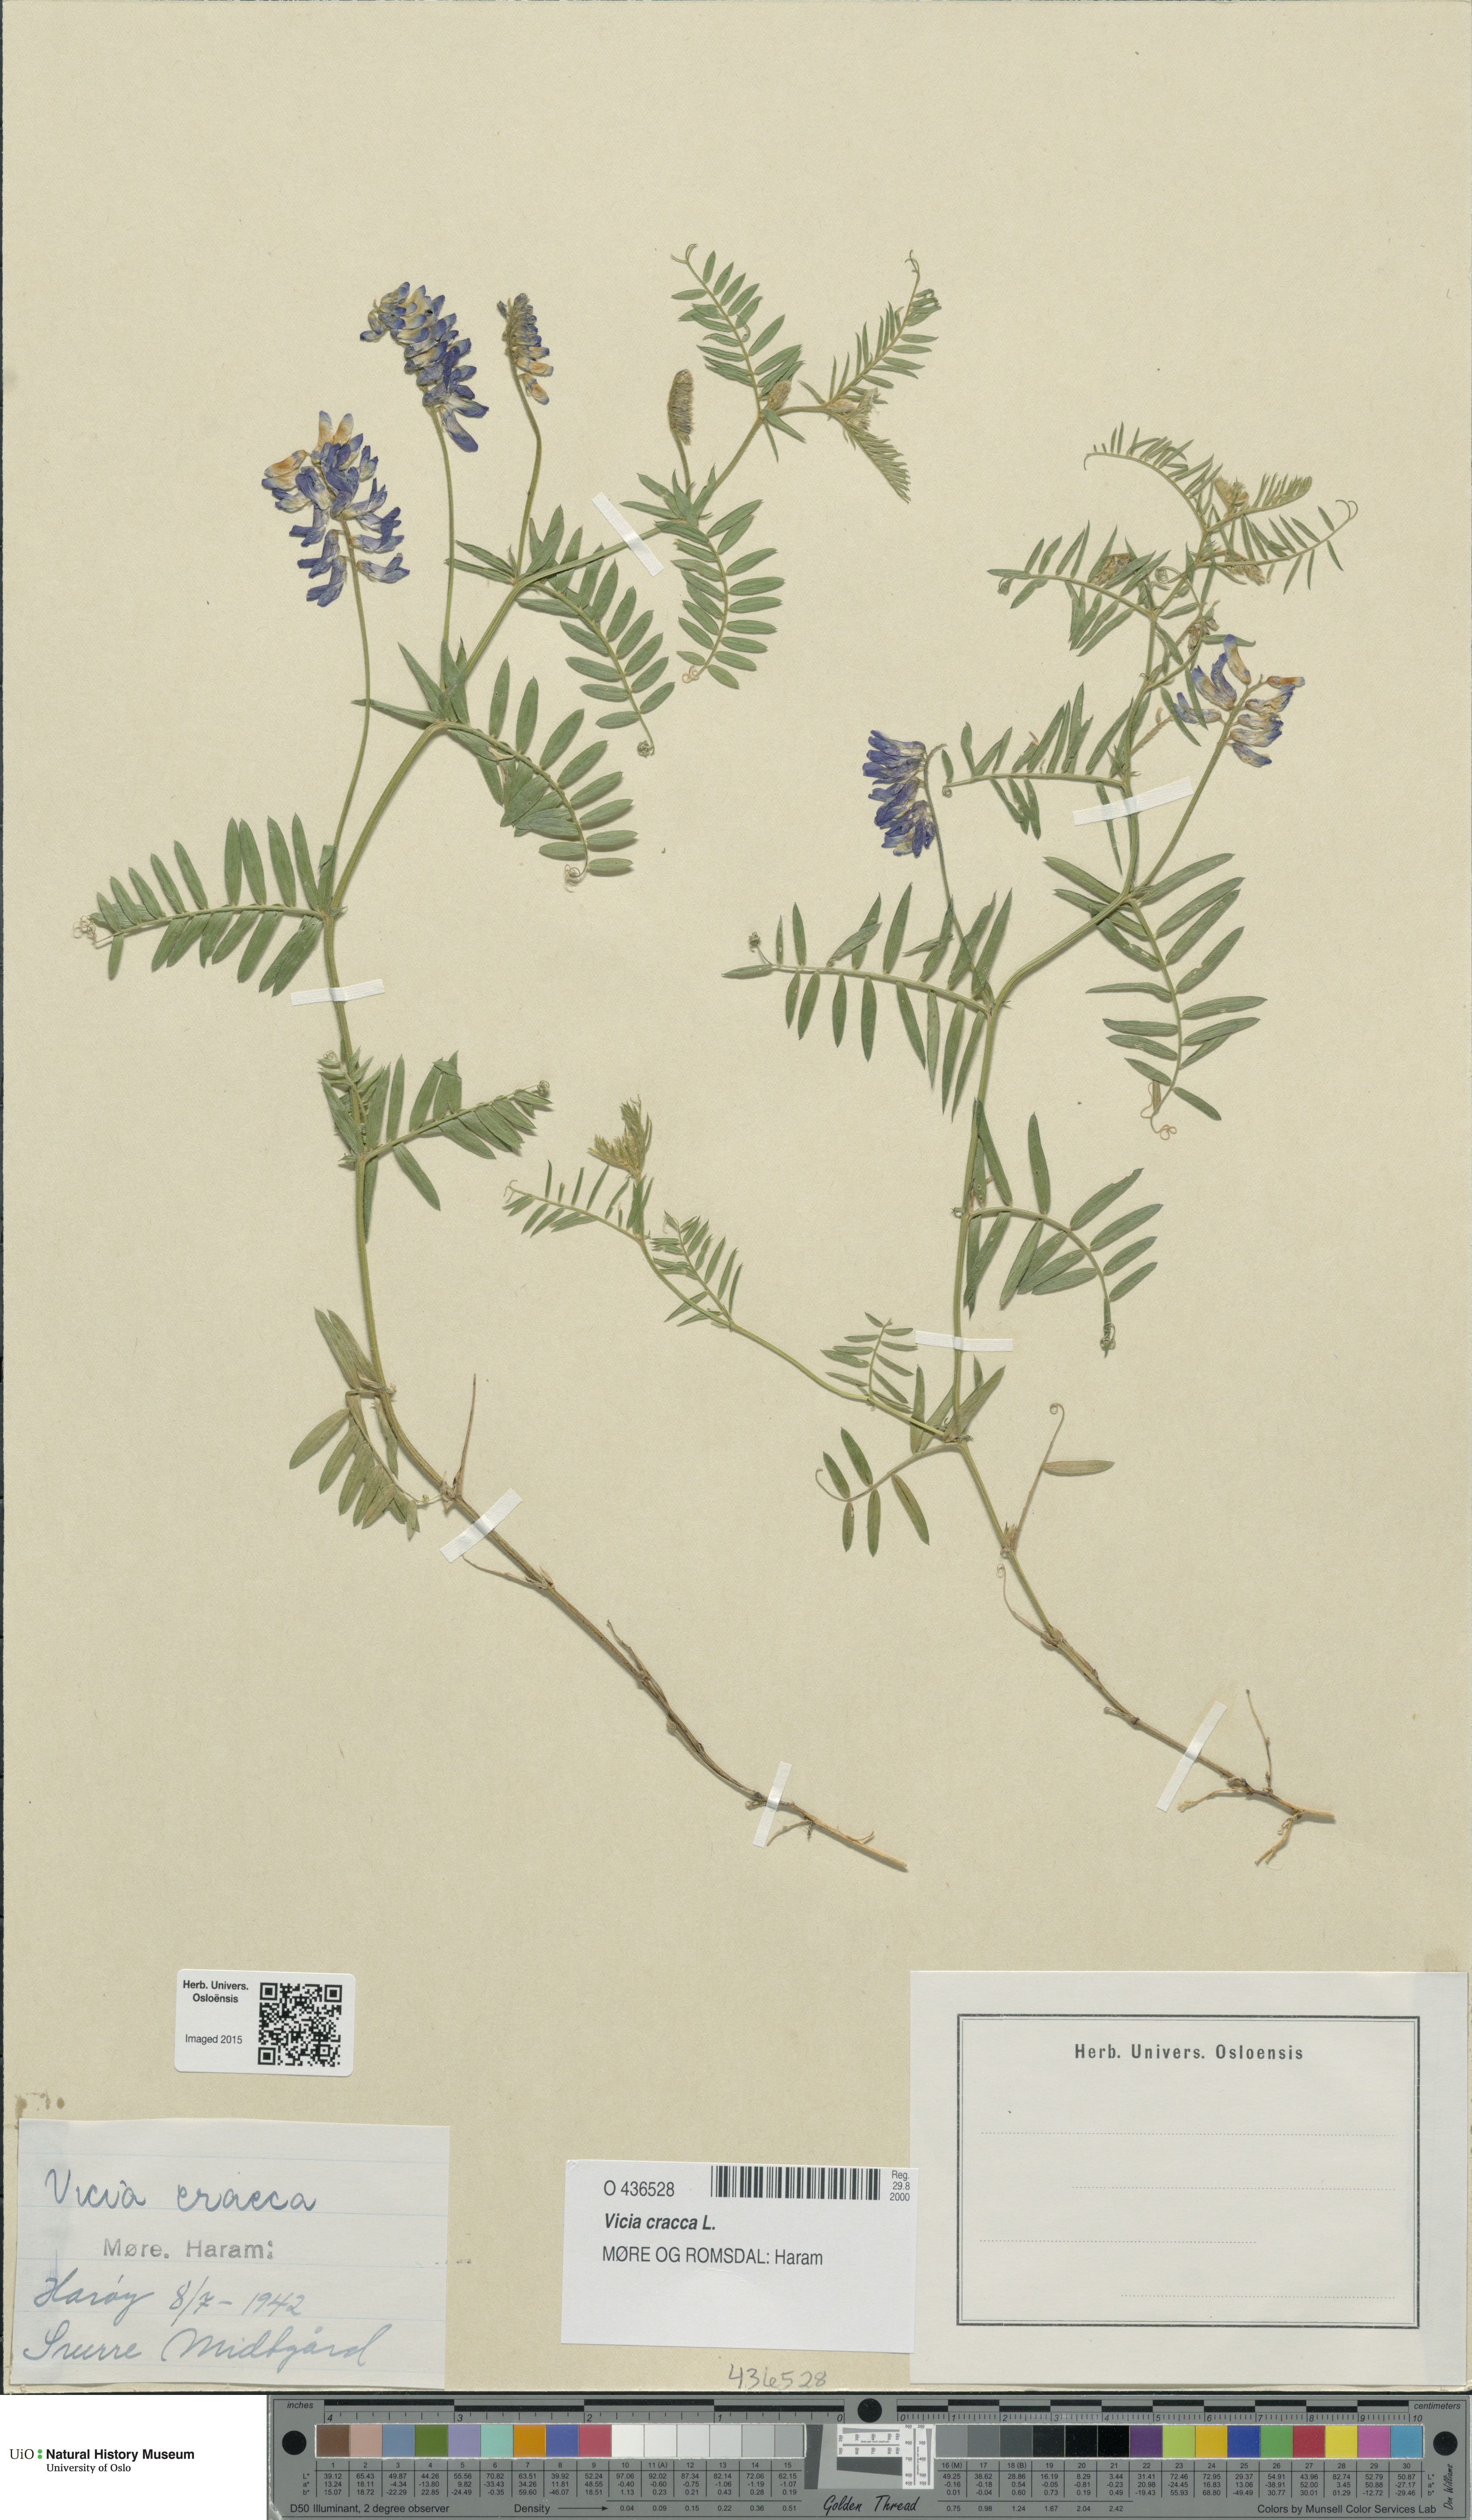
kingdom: Plantae
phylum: Tracheophyta
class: Magnoliopsida
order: Fabales
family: Fabaceae
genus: Vicia
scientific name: Vicia cracca
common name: Bird vetch
